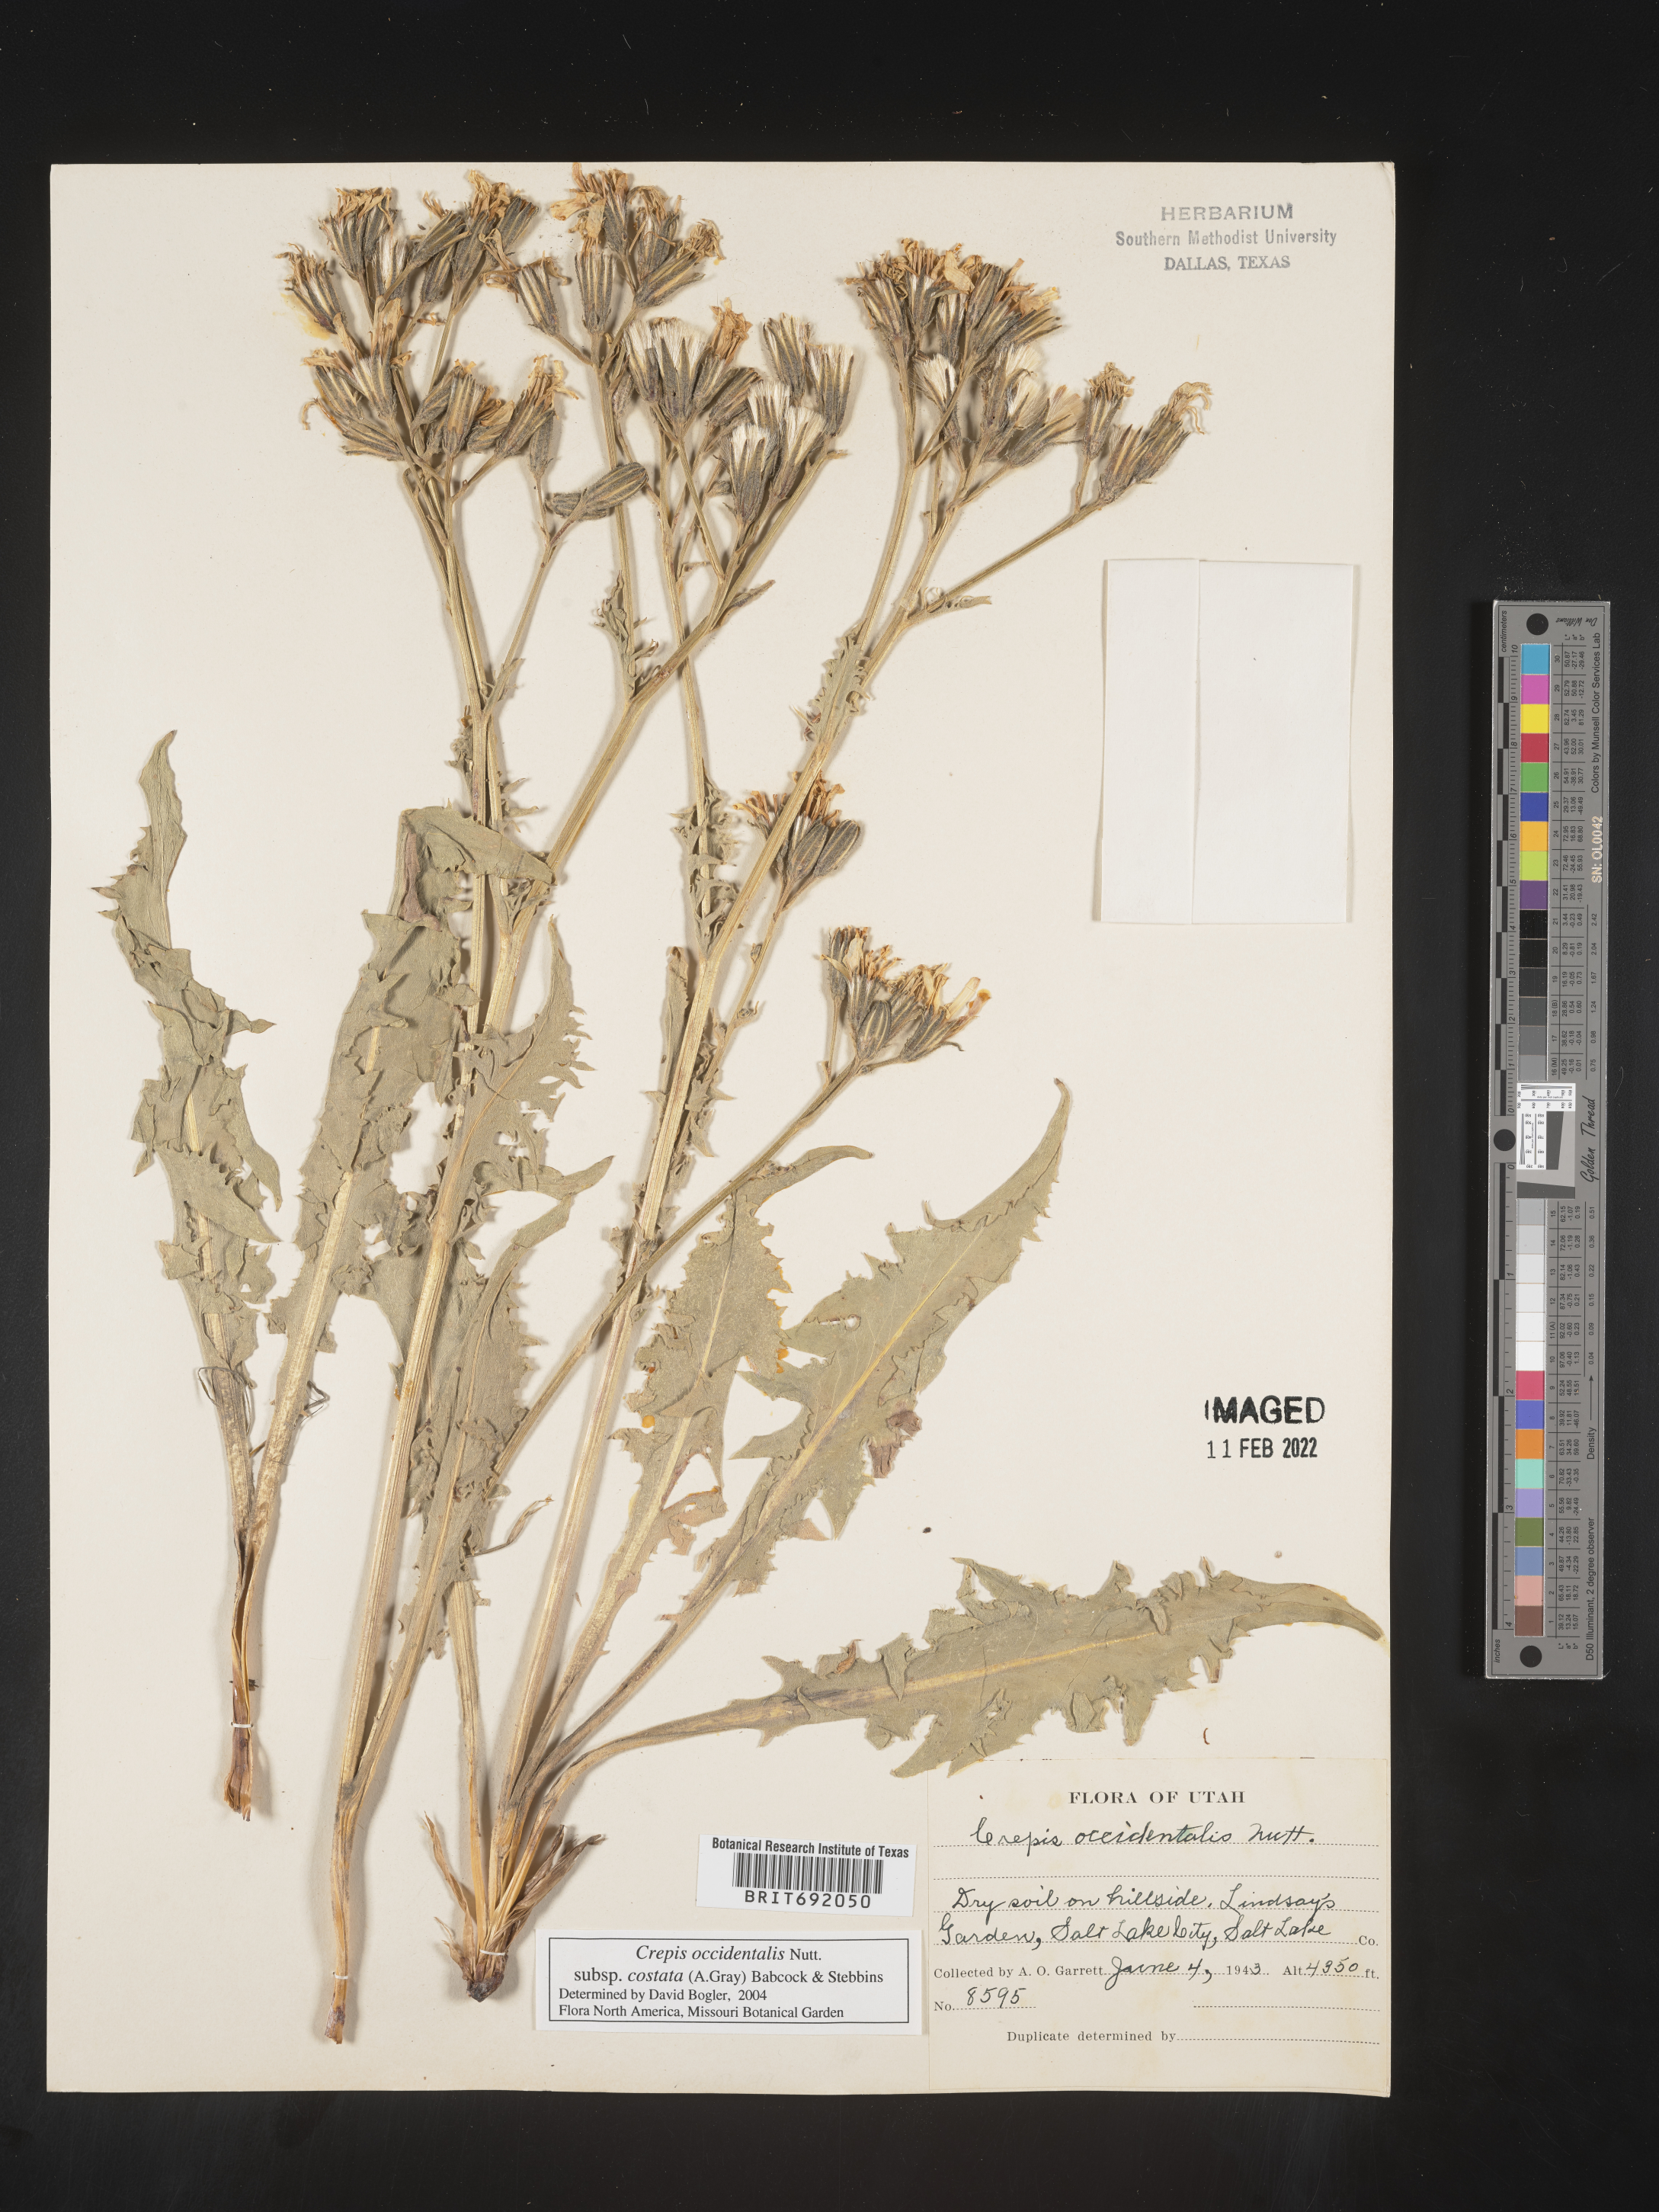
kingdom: Plantae
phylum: Tracheophyta
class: Magnoliopsida
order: Asterales
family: Asteraceae
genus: Crepis
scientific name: Crepis occidentalis
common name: Gray hawk's-beard
